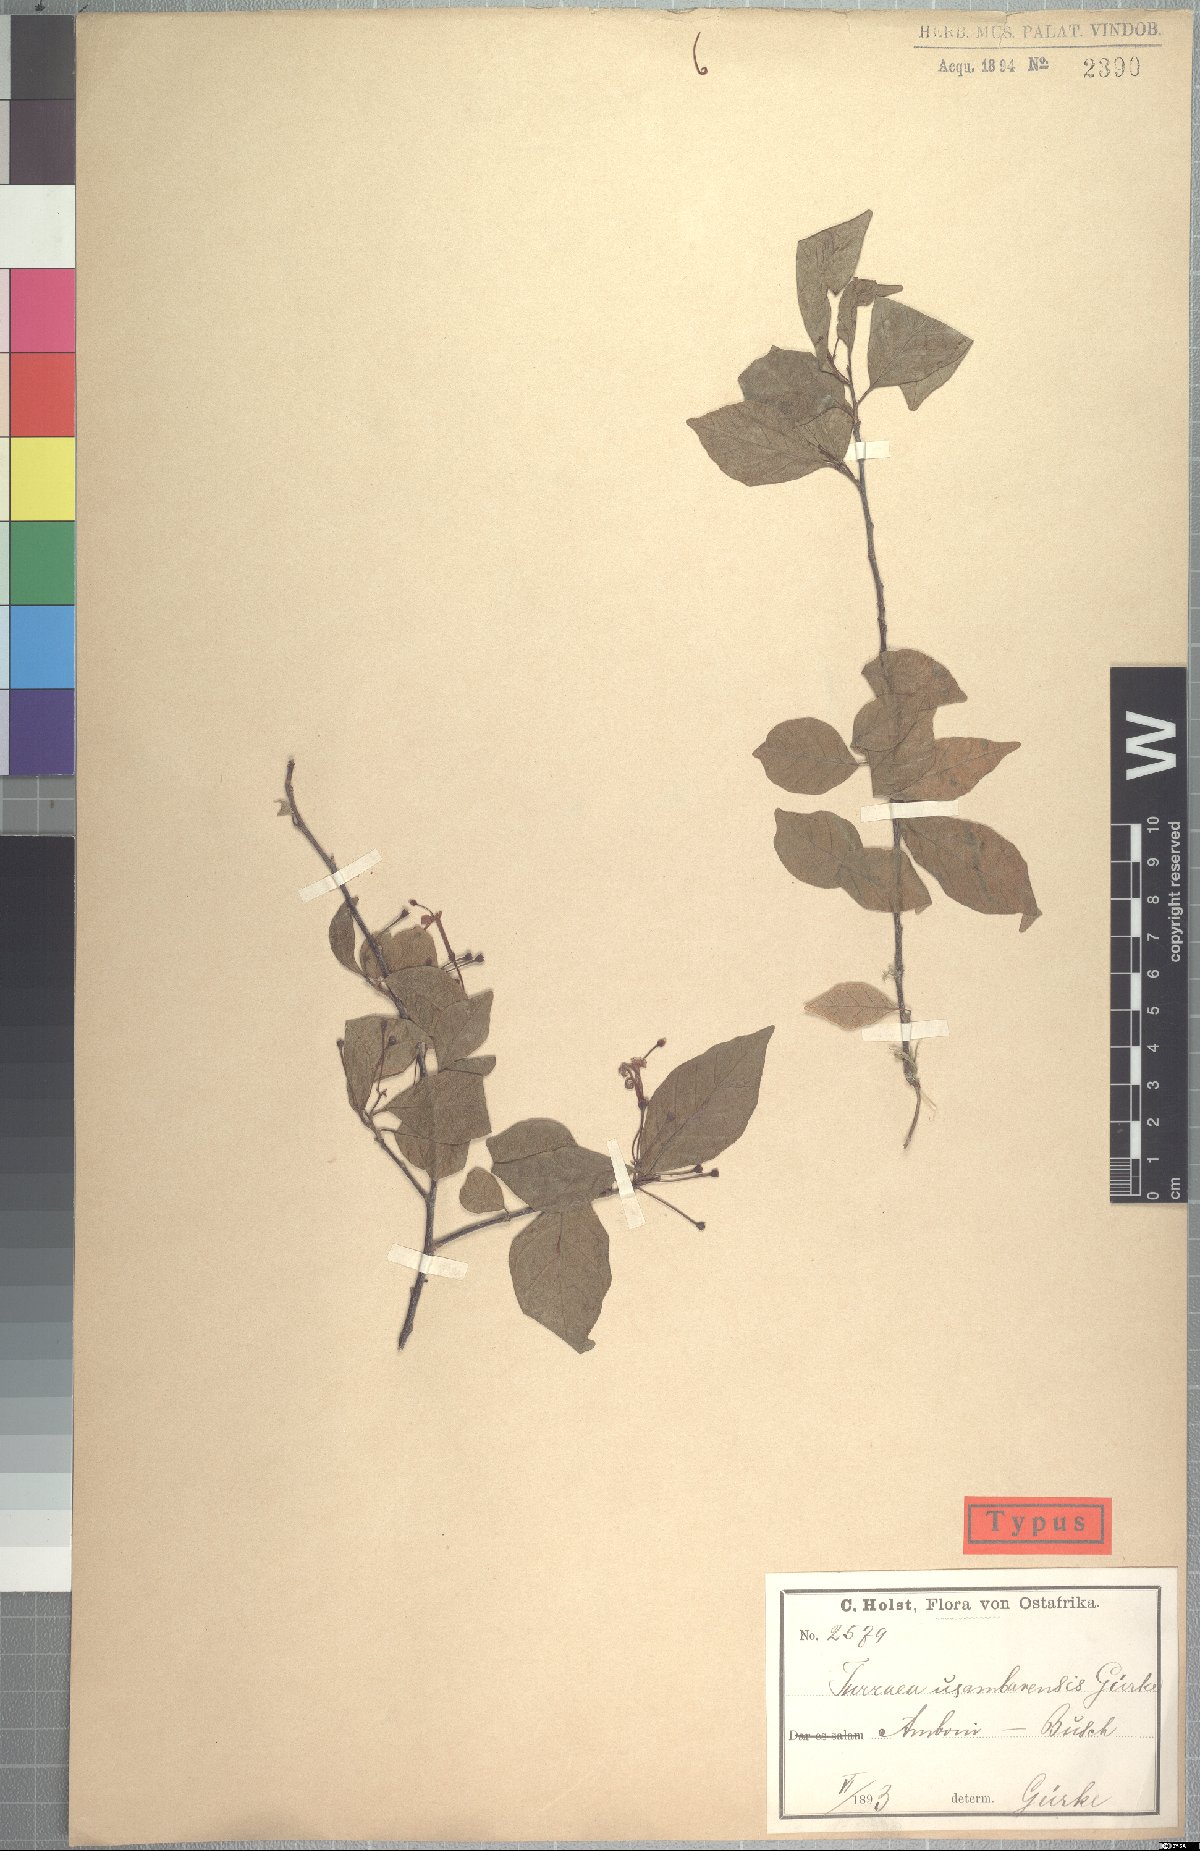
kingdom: Plantae
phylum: Tracheophyta
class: Magnoliopsida
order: Sapindales
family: Meliaceae
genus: Turraea
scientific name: Turraea holstii
